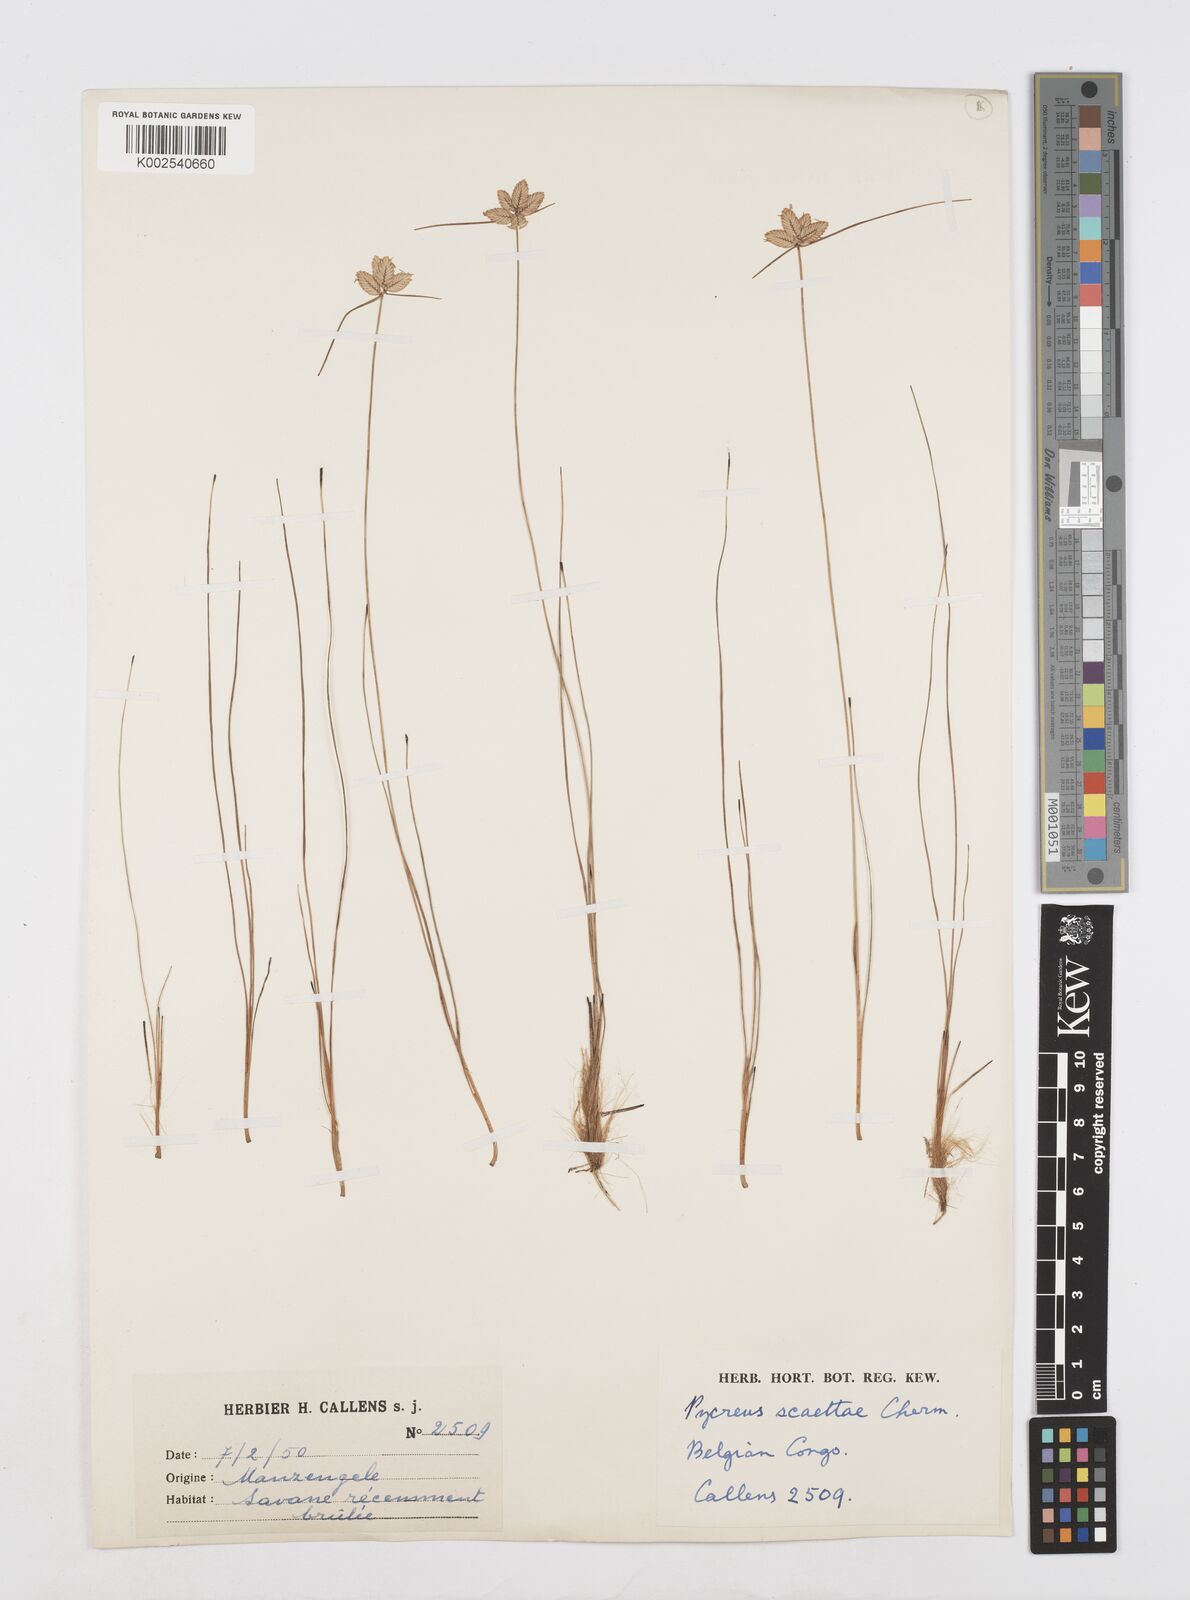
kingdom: Plantae
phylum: Tracheophyta
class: Liliopsida
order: Poales
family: Cyperaceae
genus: Cyperus
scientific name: Cyperus scaettae
